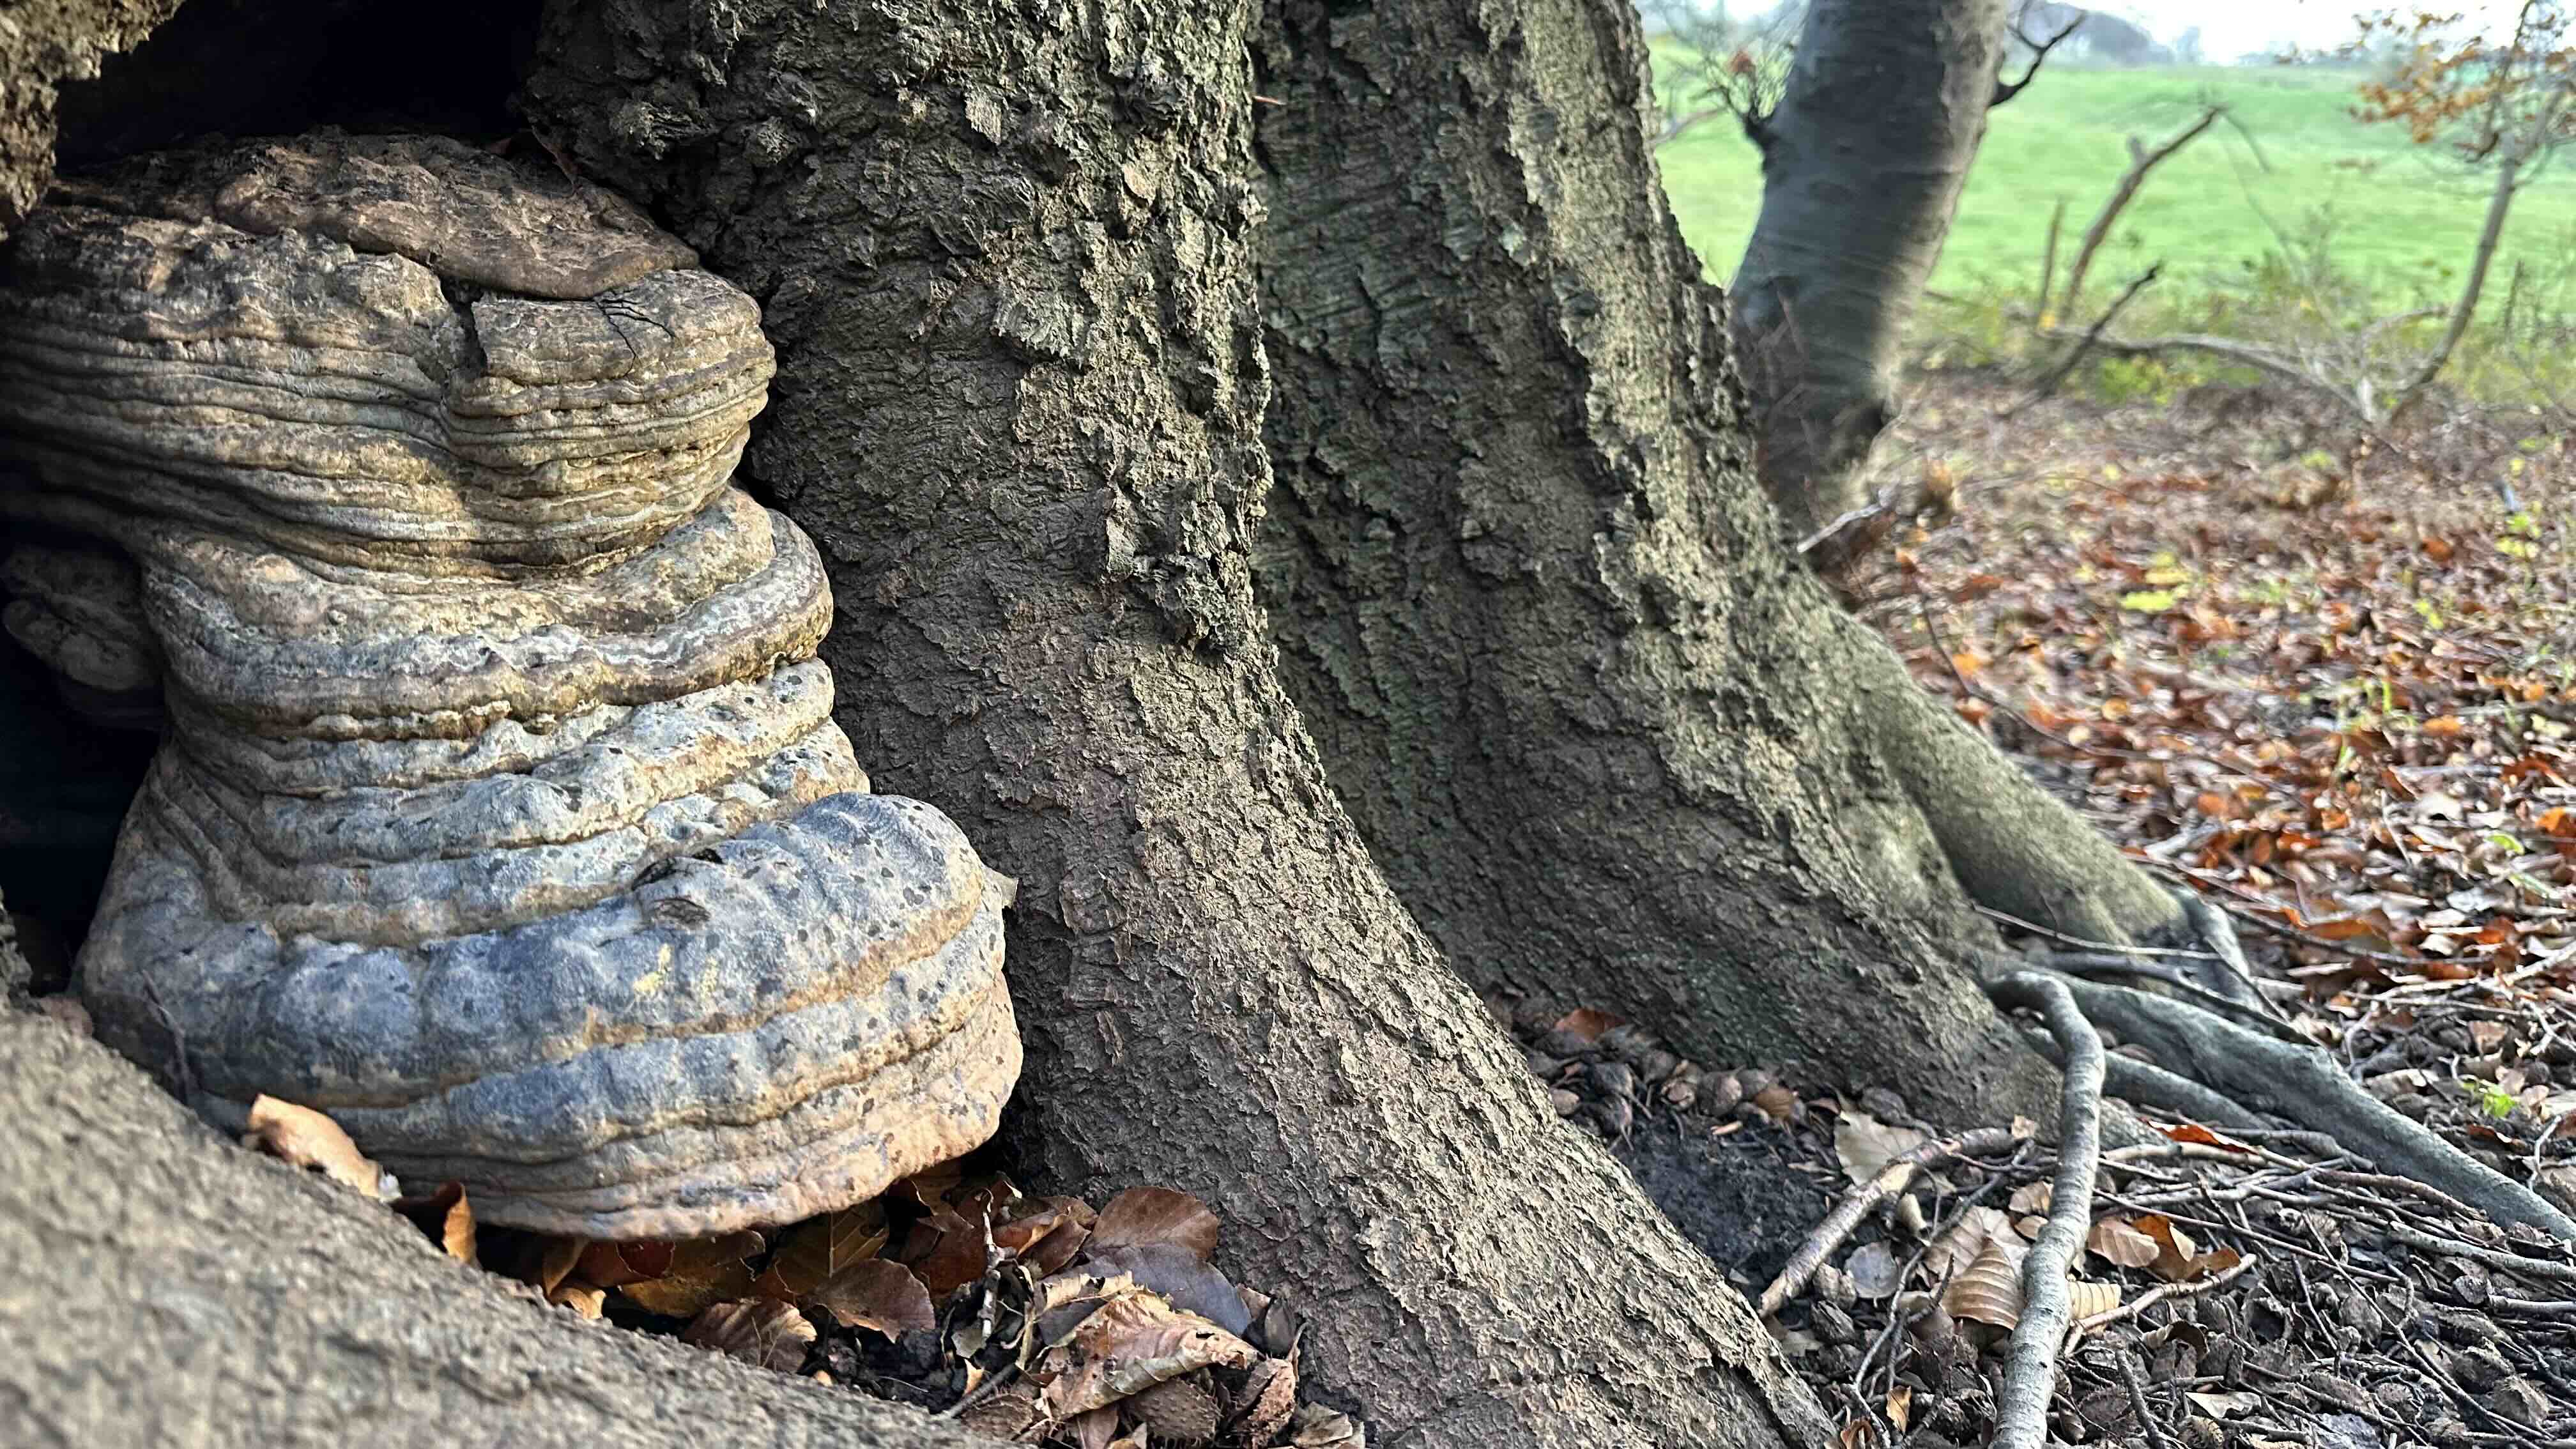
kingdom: Fungi
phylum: Basidiomycota
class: Agaricomycetes
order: Polyporales
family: Polyporaceae
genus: Ganoderma
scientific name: Ganoderma pfeifferi
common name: kobberrød lakporesvamp
